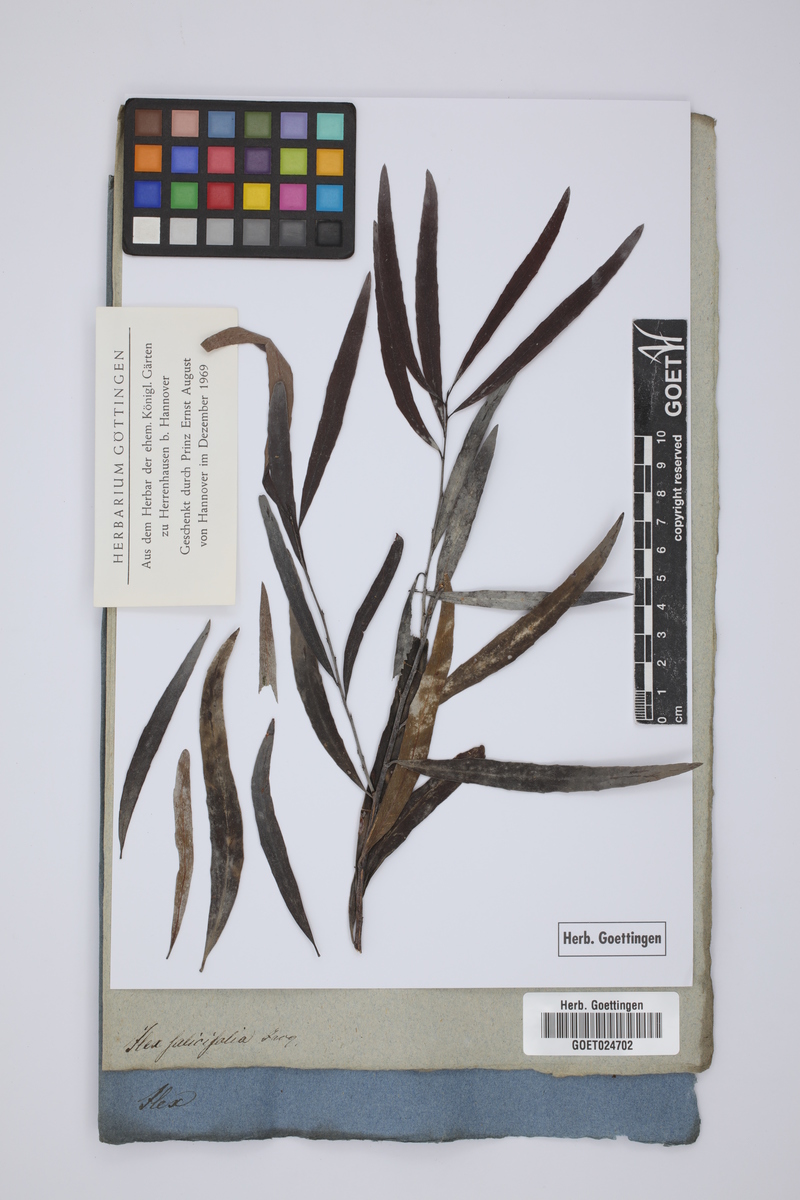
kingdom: Plantae
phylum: Tracheophyta
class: Magnoliopsida
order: Celastrales
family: Celastraceae
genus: Gymnosporia
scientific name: Gymnosporia pyria
